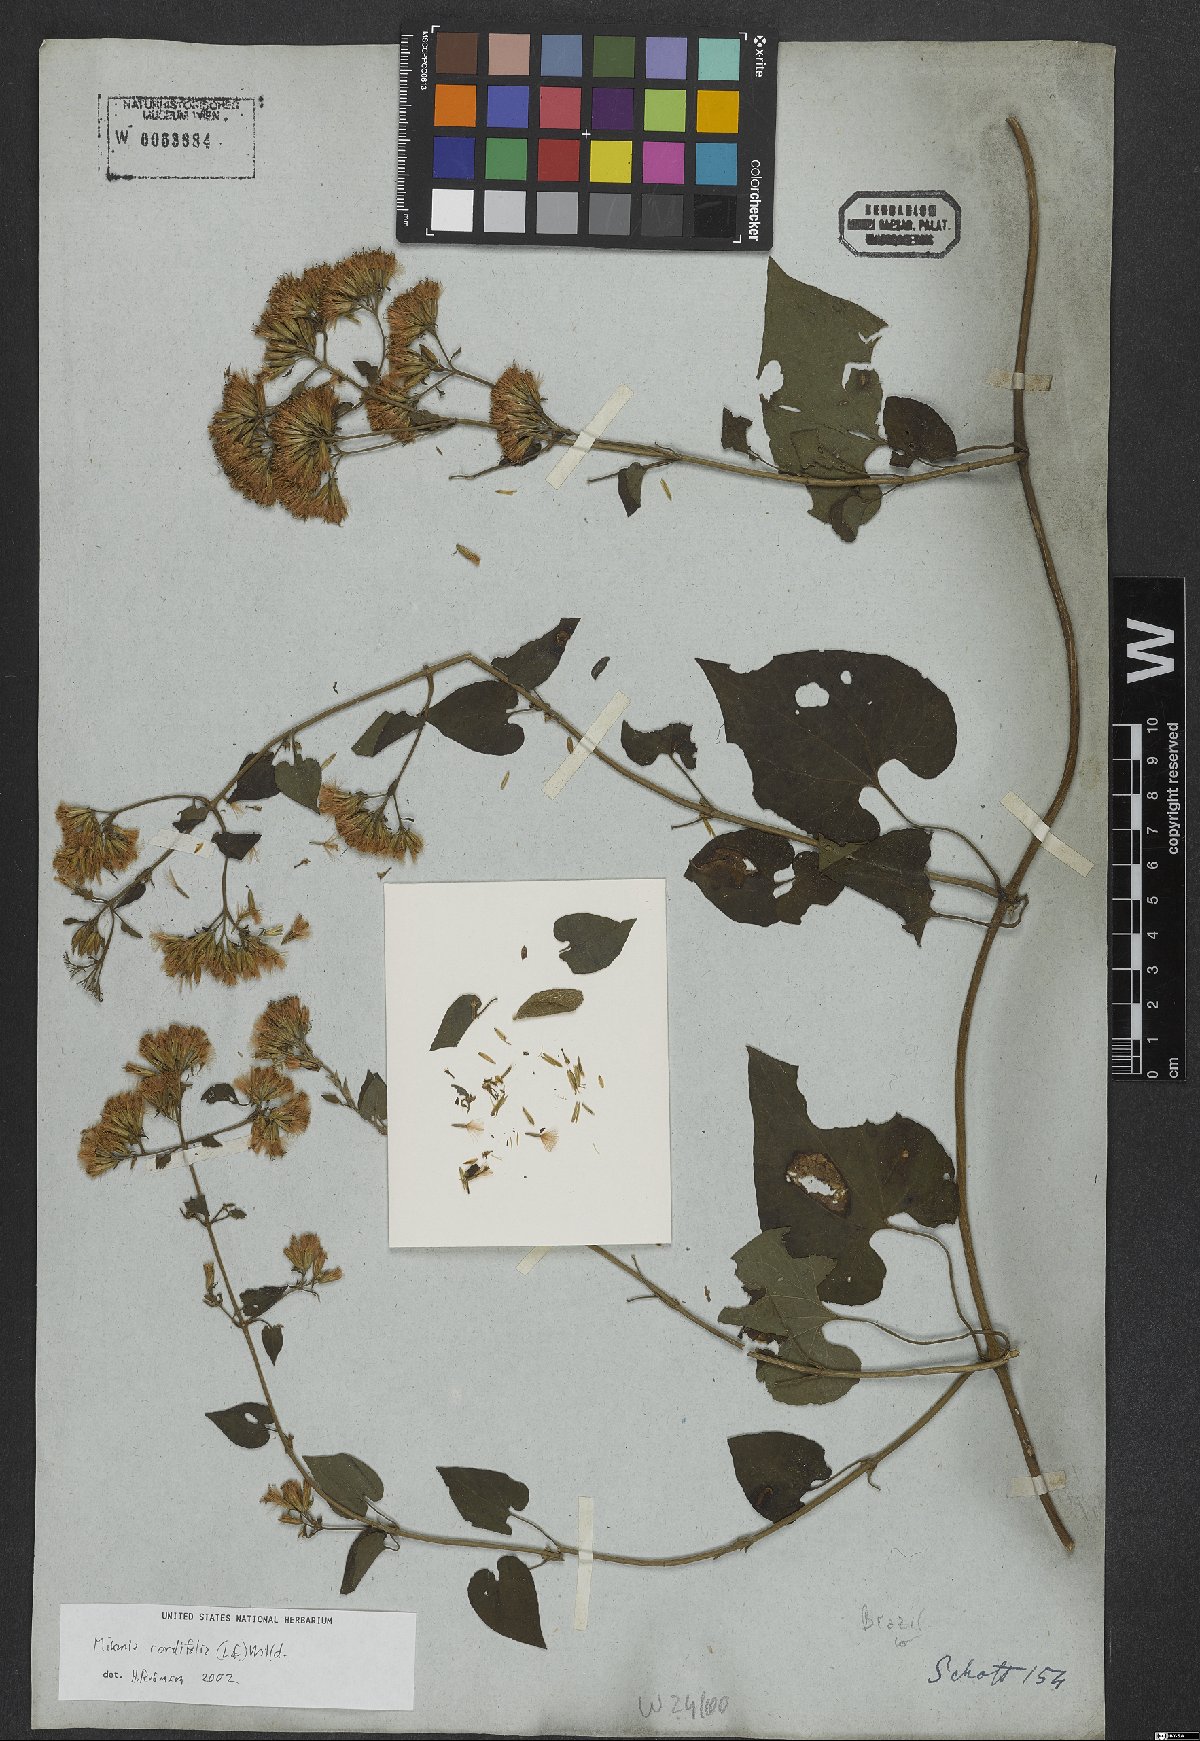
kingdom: Plantae
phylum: Tracheophyta
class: Magnoliopsida
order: Asterales
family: Asteraceae
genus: Mikania
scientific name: Mikania cordifolia
